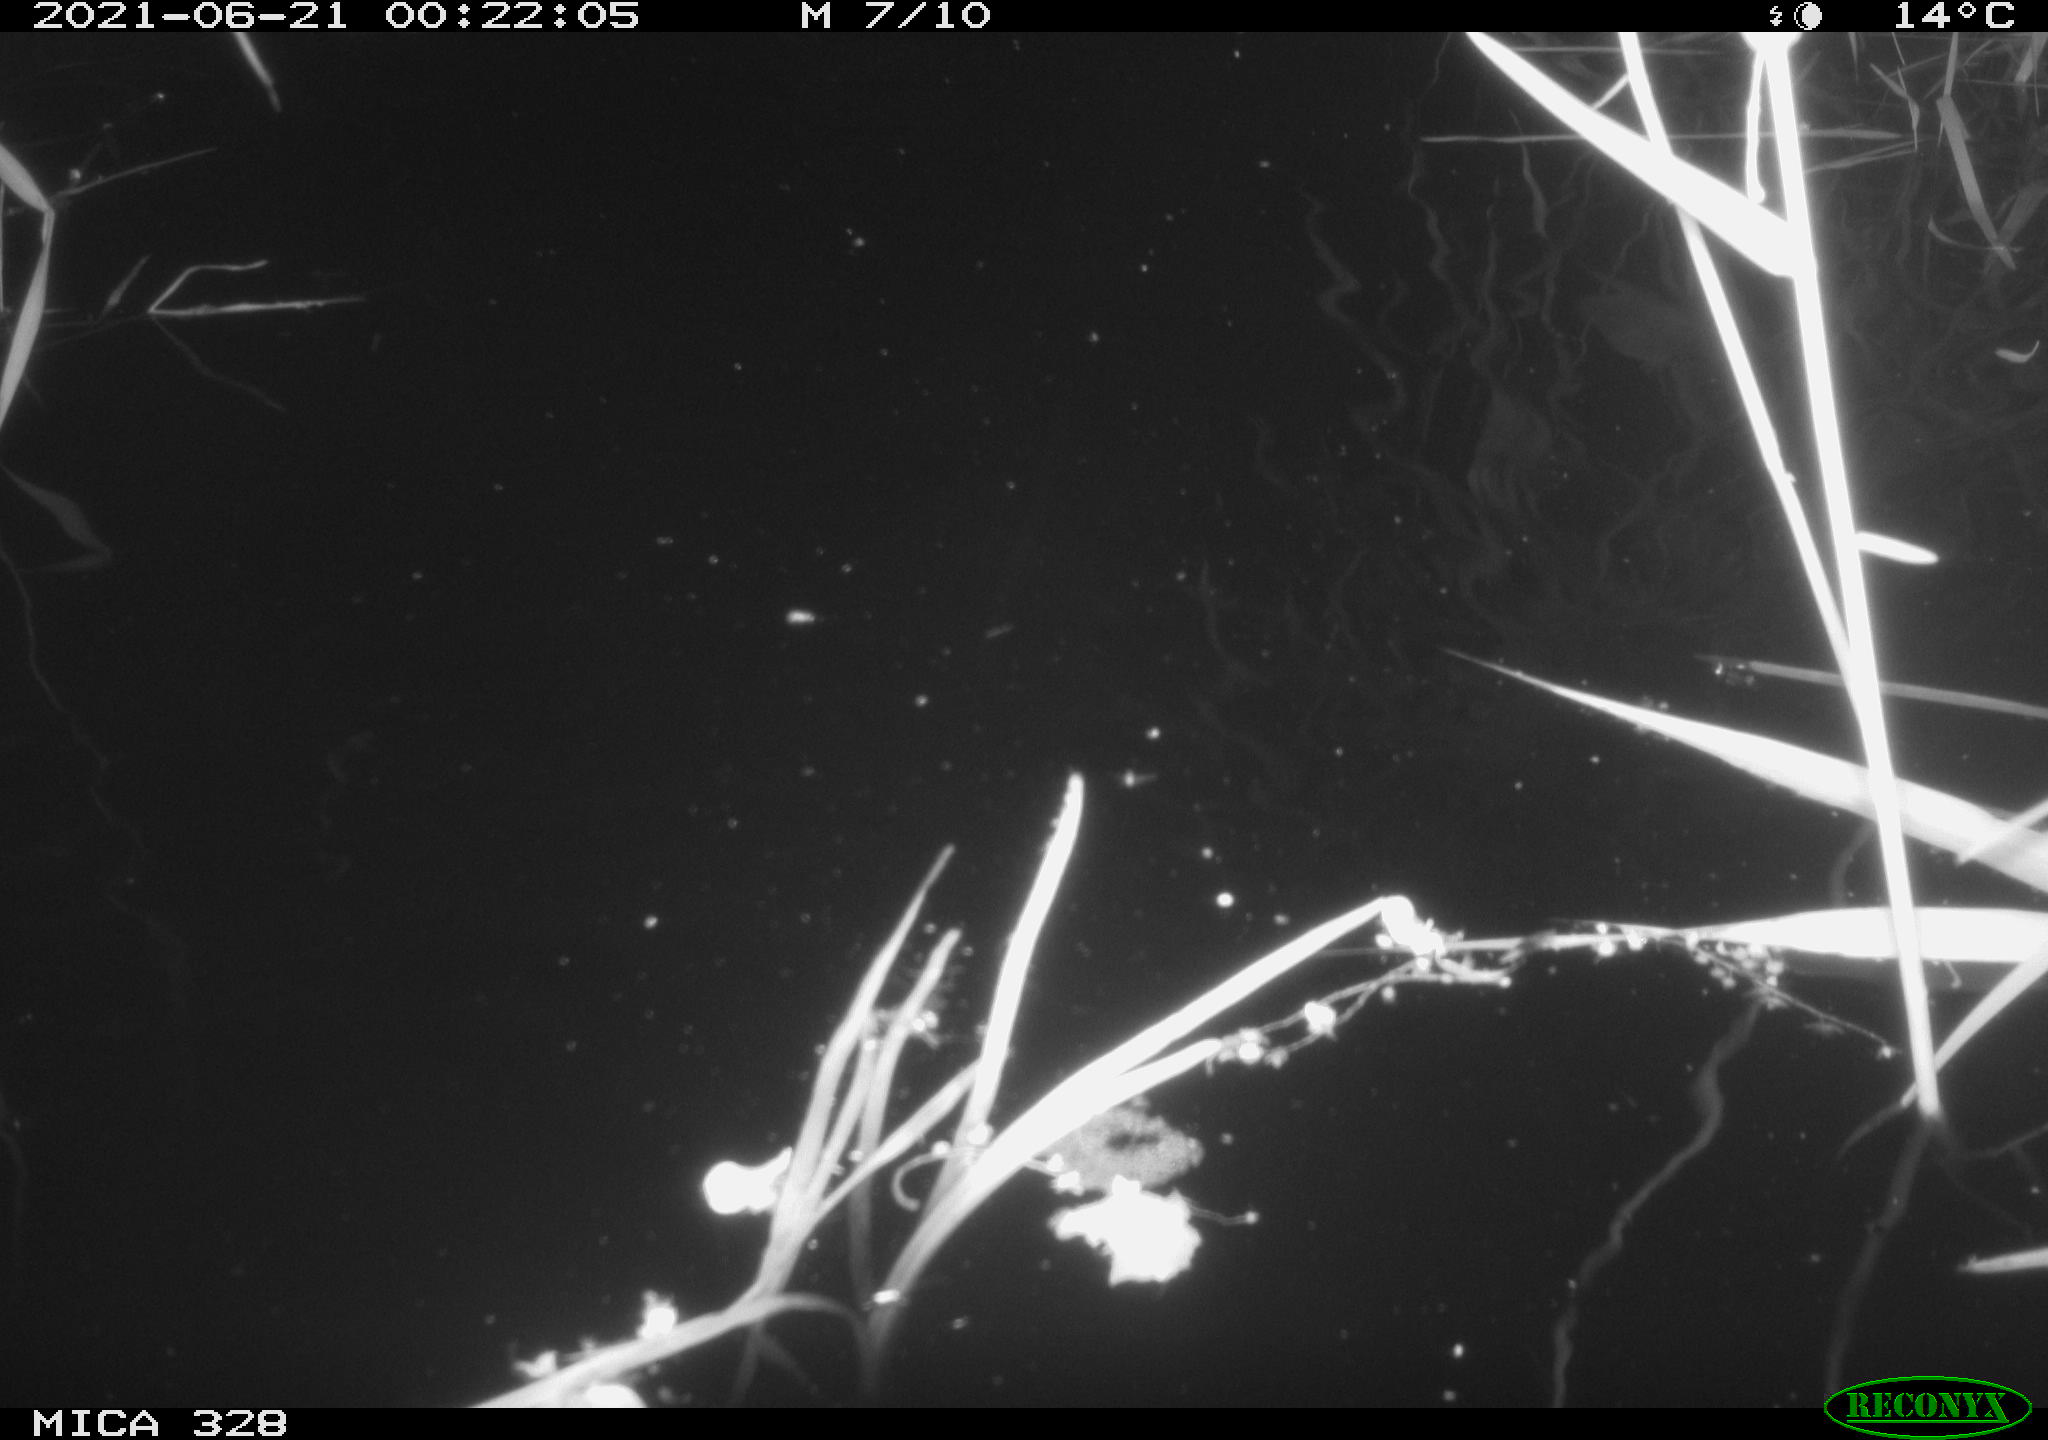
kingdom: Animalia
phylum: Chordata
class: Mammalia
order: Rodentia
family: Cricetidae
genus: Ondatra
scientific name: Ondatra zibethicus
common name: Muskrat
